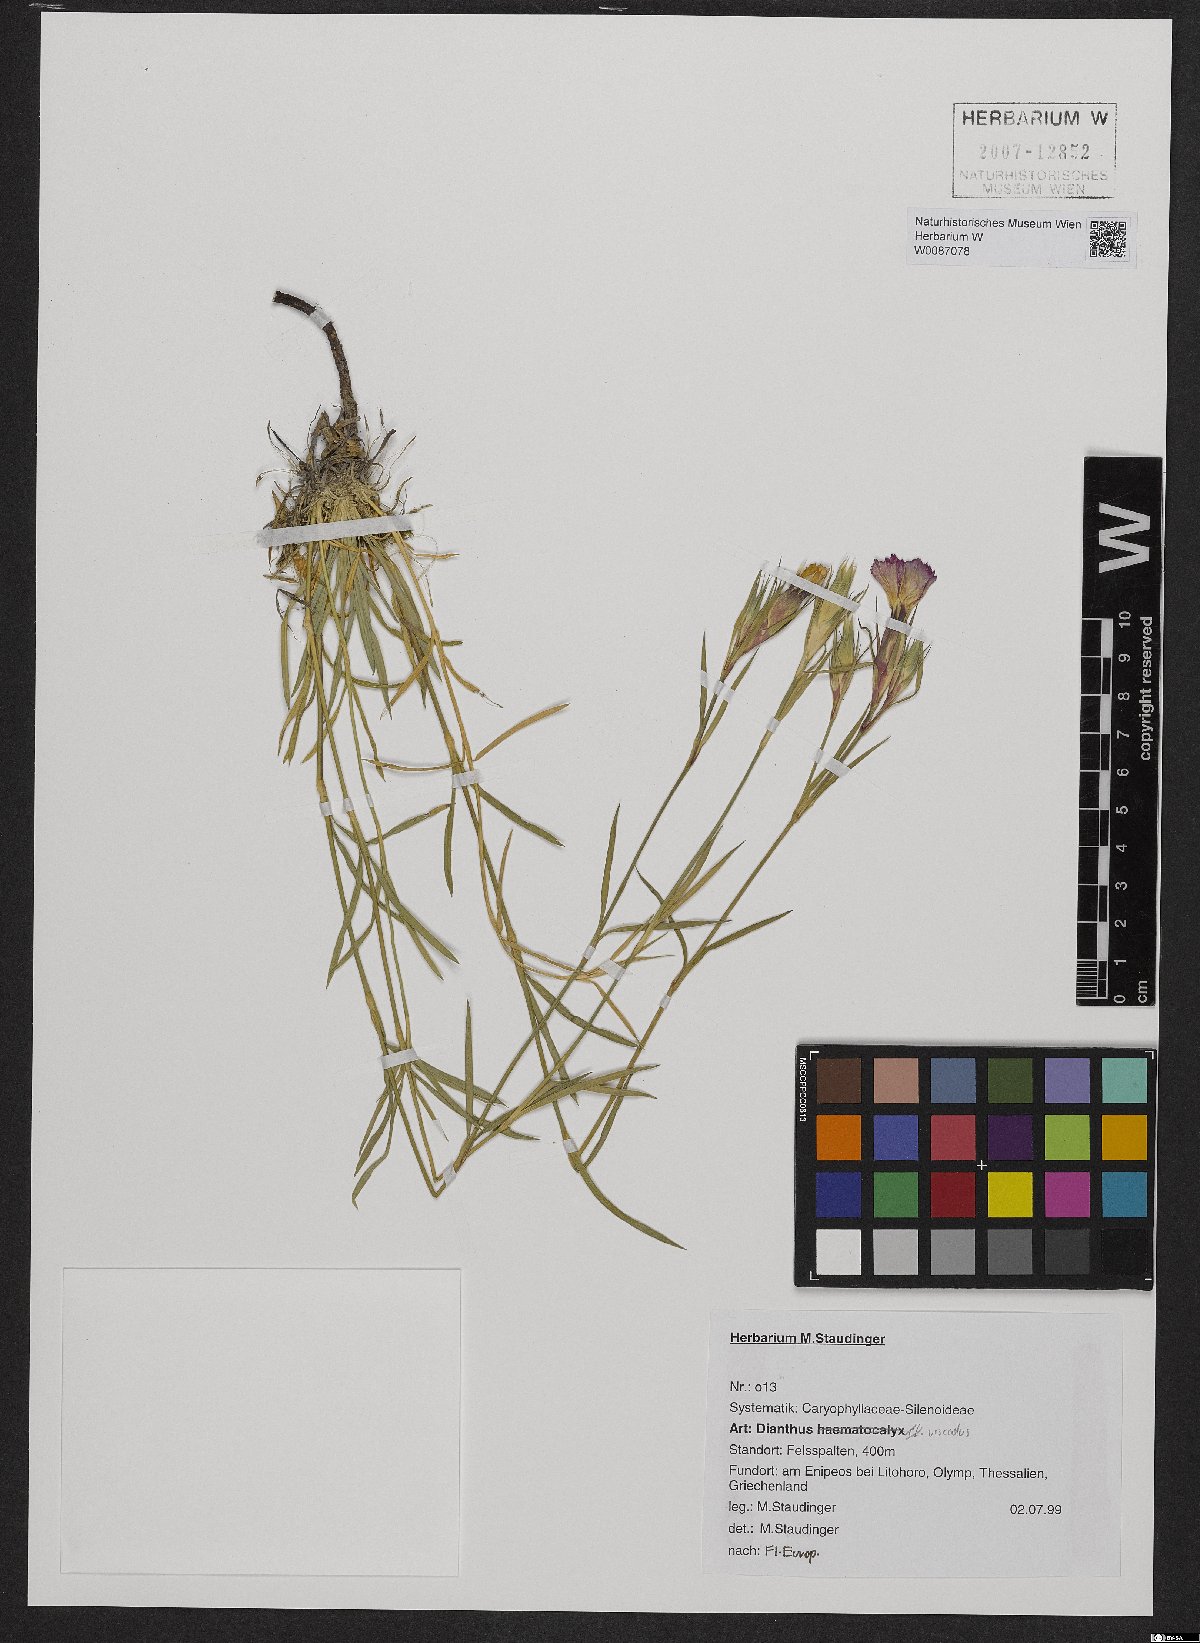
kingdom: Plantae
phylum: Tracheophyta
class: Magnoliopsida
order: Caryophyllales
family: Caryophyllaceae
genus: Dianthus
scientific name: Dianthus viscidus
